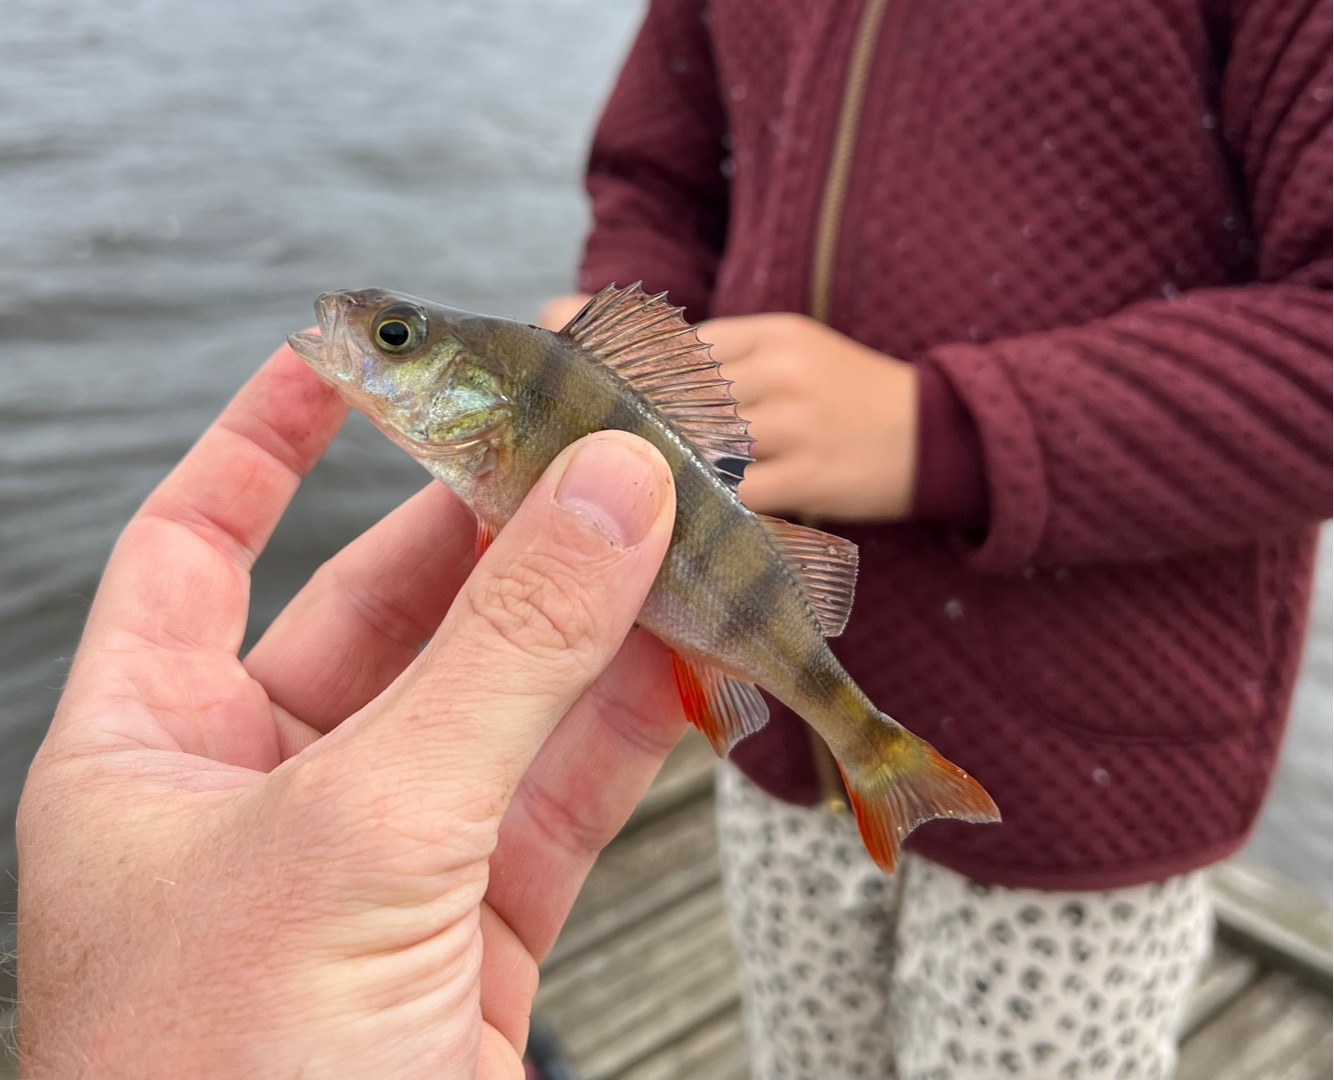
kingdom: Animalia
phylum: Chordata
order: Perciformes
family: Percidae
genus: Perca
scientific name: Perca fluviatilis
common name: Aborre
